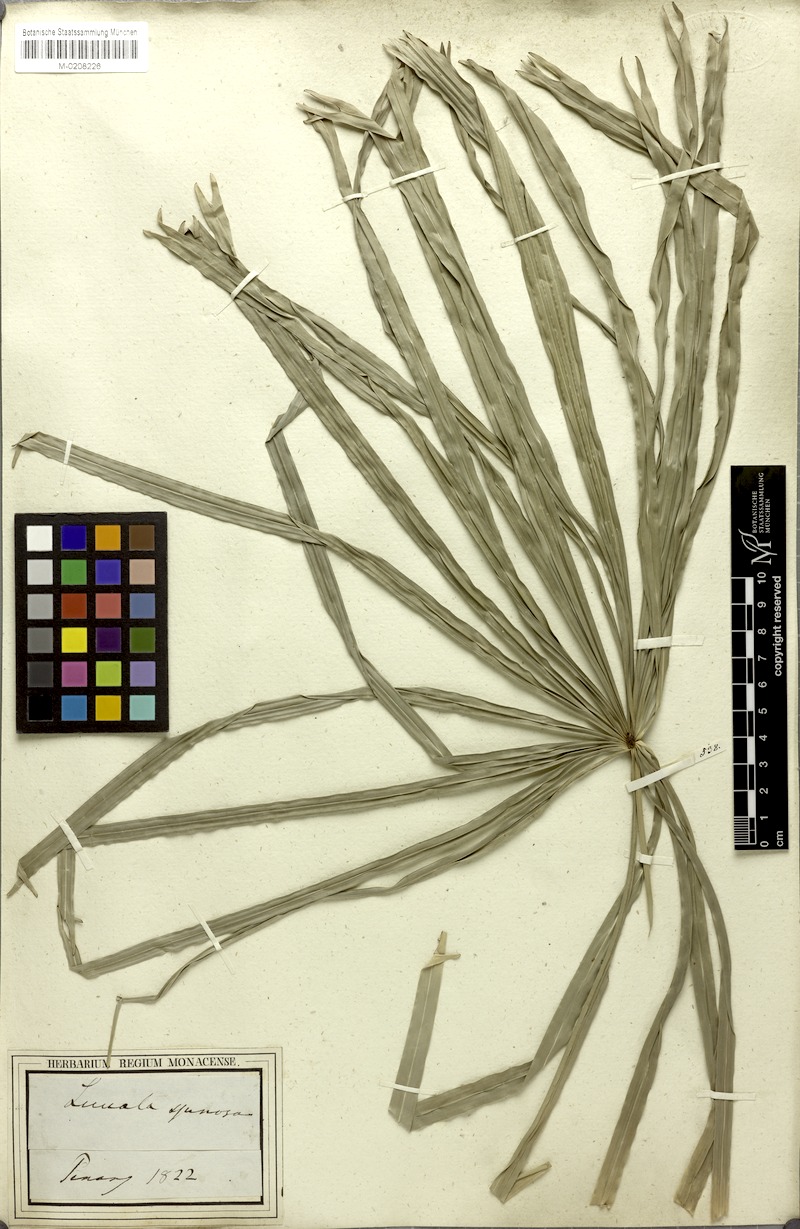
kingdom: Plantae
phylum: Tracheophyta
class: Liliopsida
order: Arecales
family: Arecaceae
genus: Licuala
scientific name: Licuala acutifida
